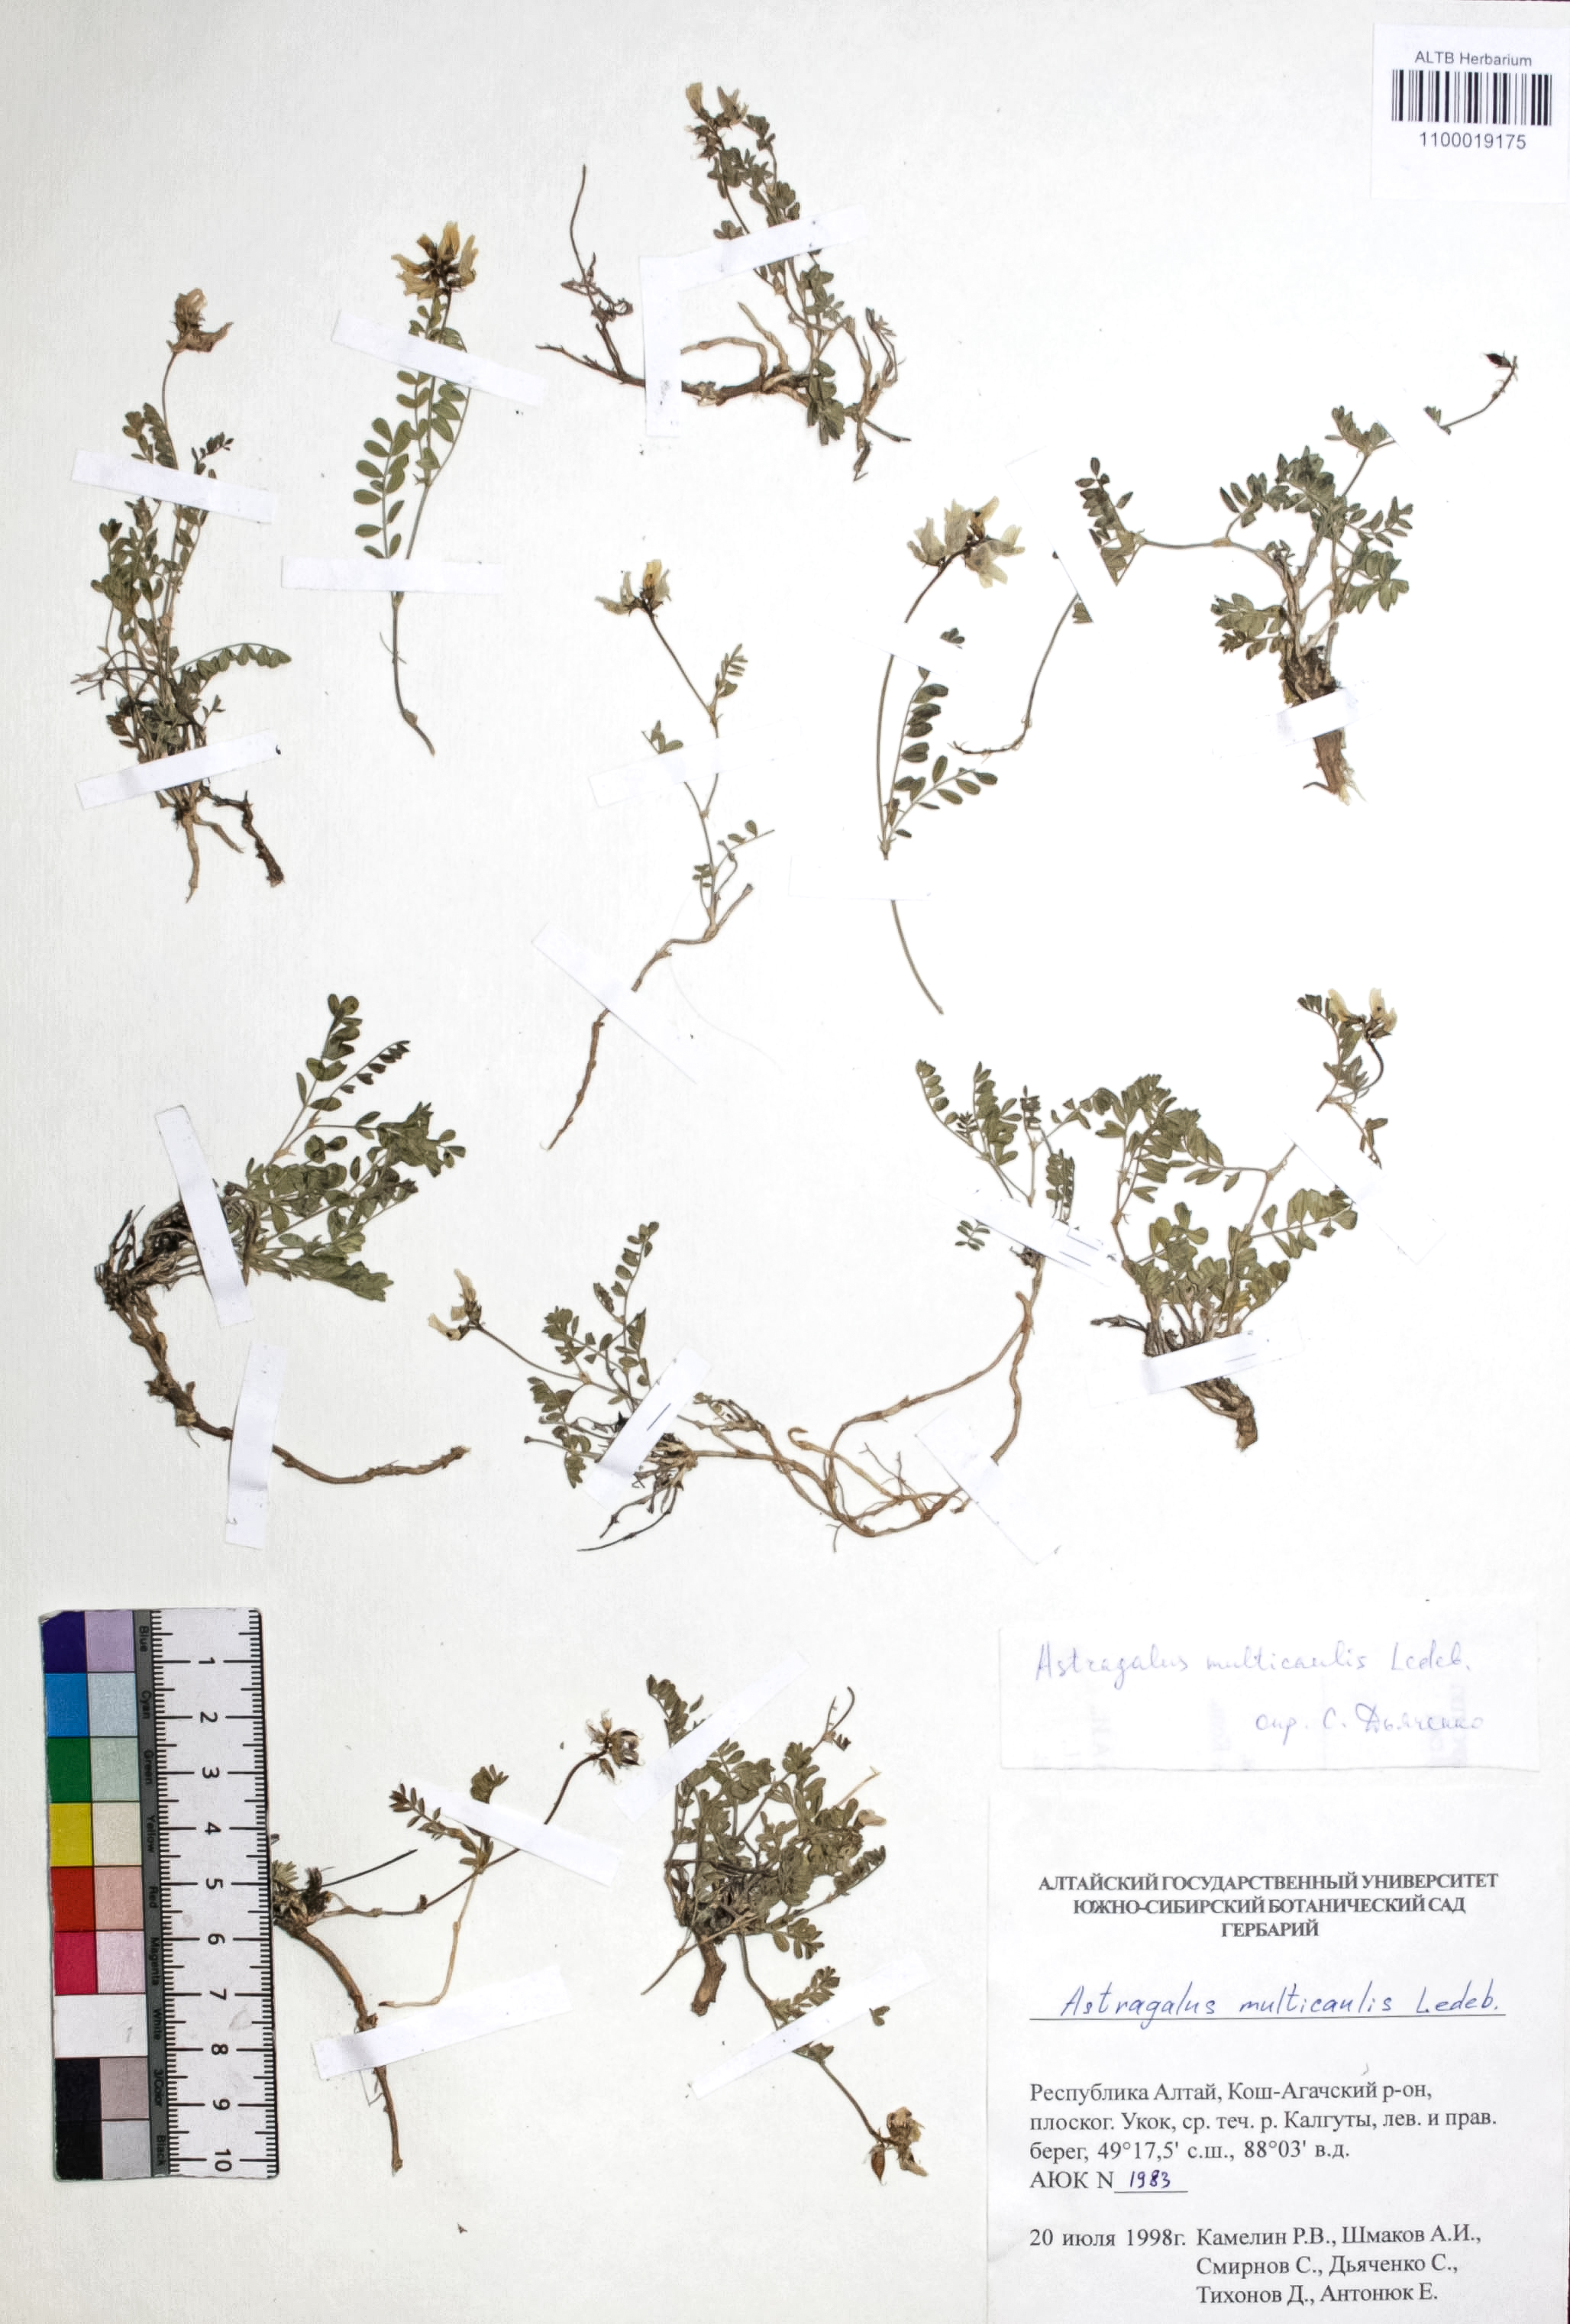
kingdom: Plantae
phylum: Tracheophyta
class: Magnoliopsida
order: Fabales
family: Fabaceae
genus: Astragalus
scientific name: Astragalus leptostachys
